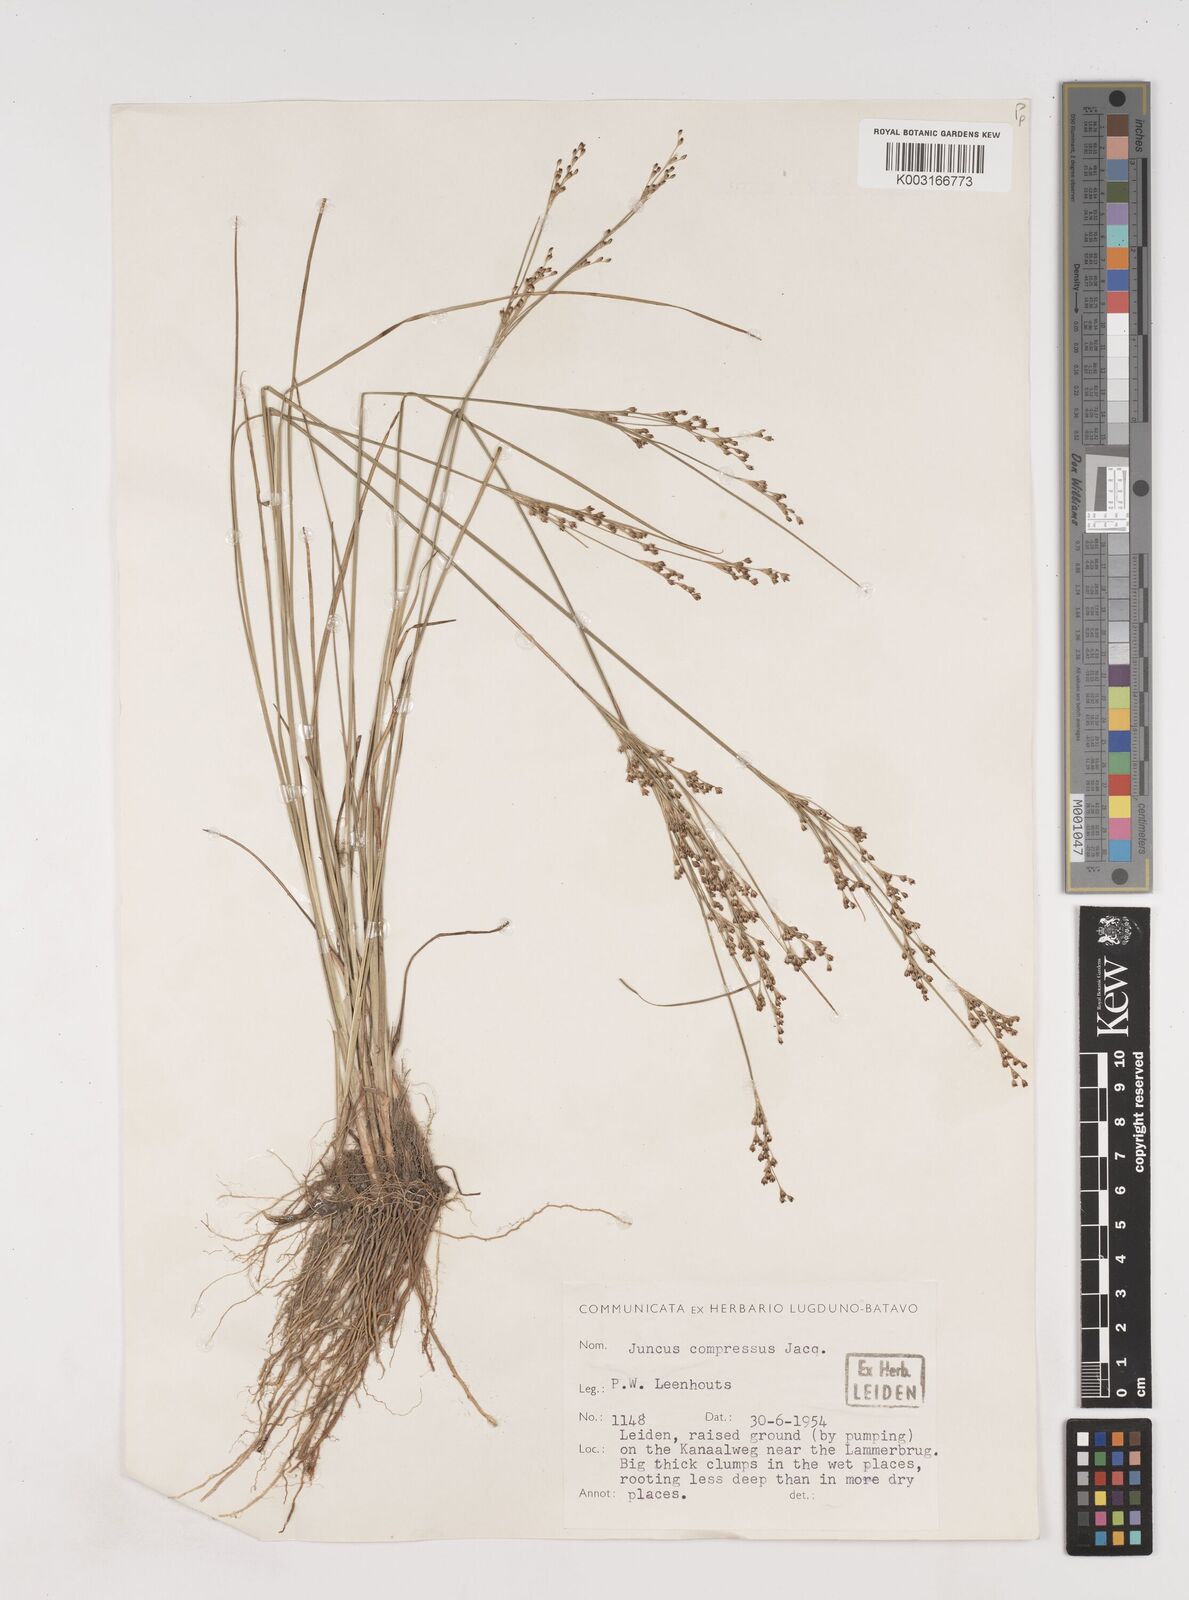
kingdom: Plantae
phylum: Tracheophyta
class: Liliopsida
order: Poales
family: Juncaceae
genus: Juncus
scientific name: Juncus
